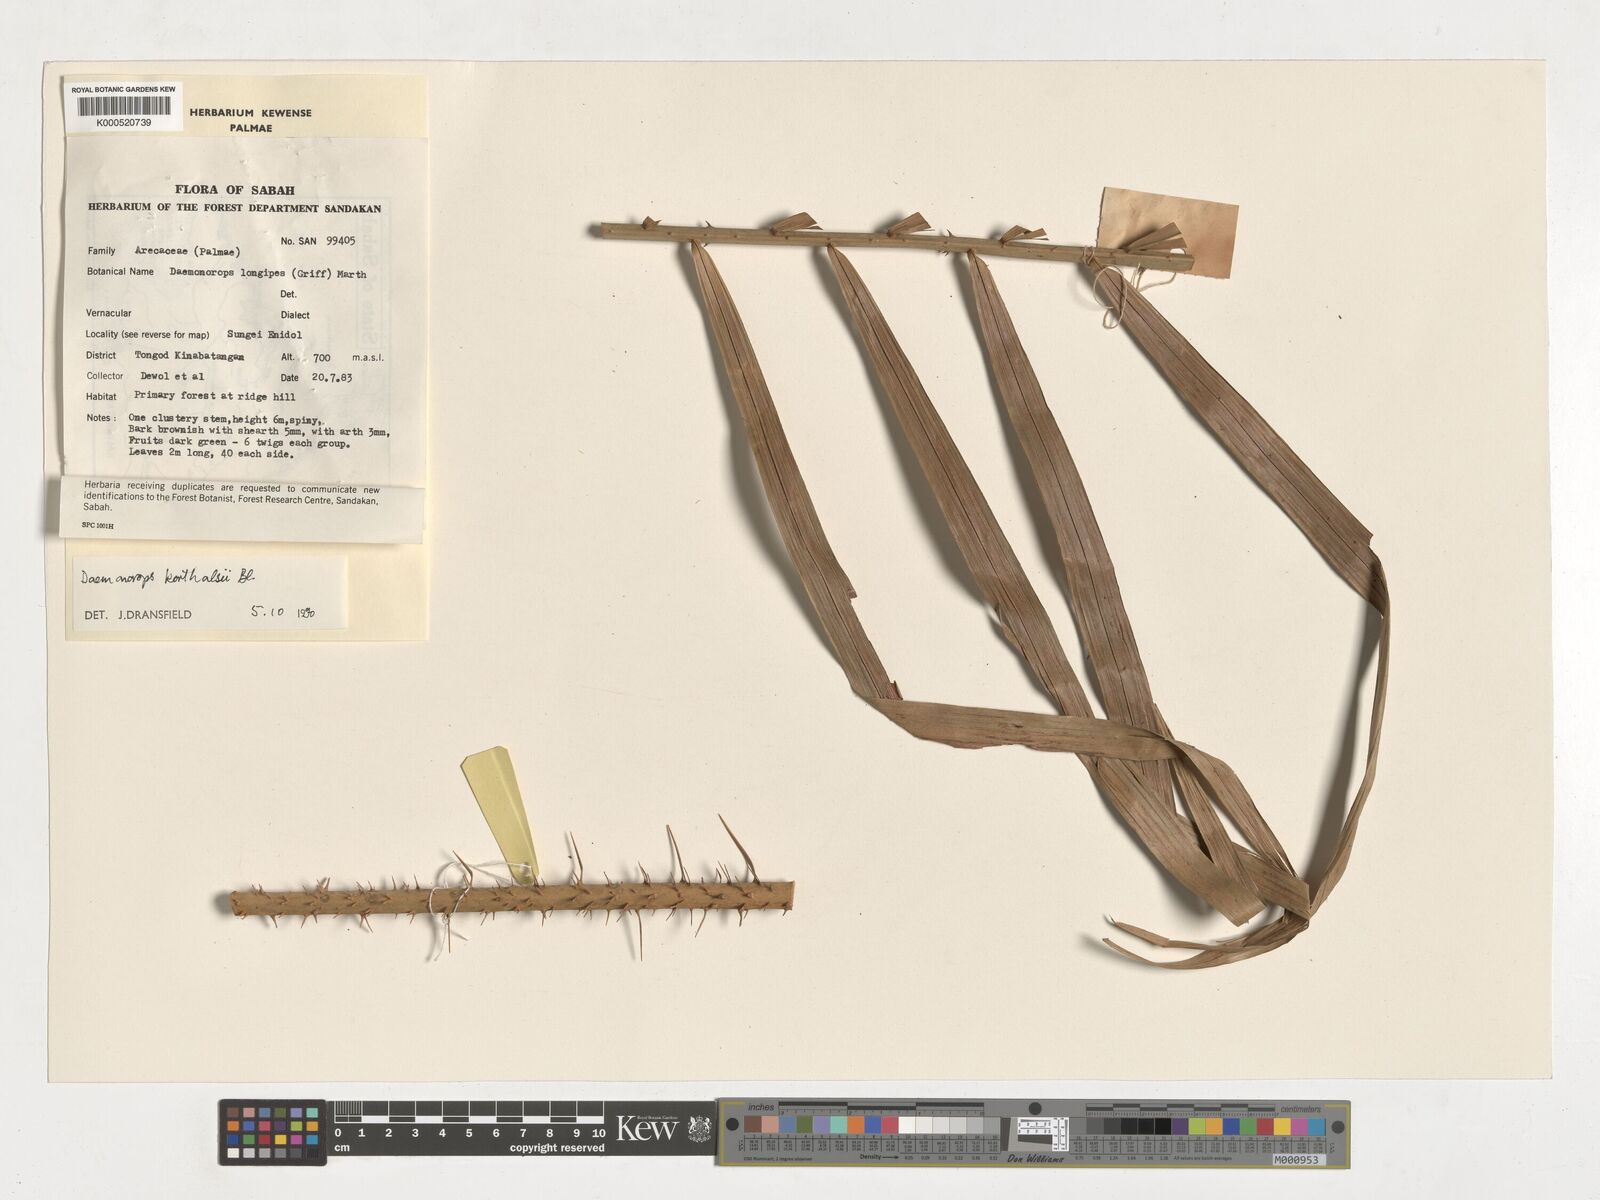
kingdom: Plantae
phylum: Tracheophyta
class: Liliopsida
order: Arecales
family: Arecaceae
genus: Calamus
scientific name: Calamus hirsutus
